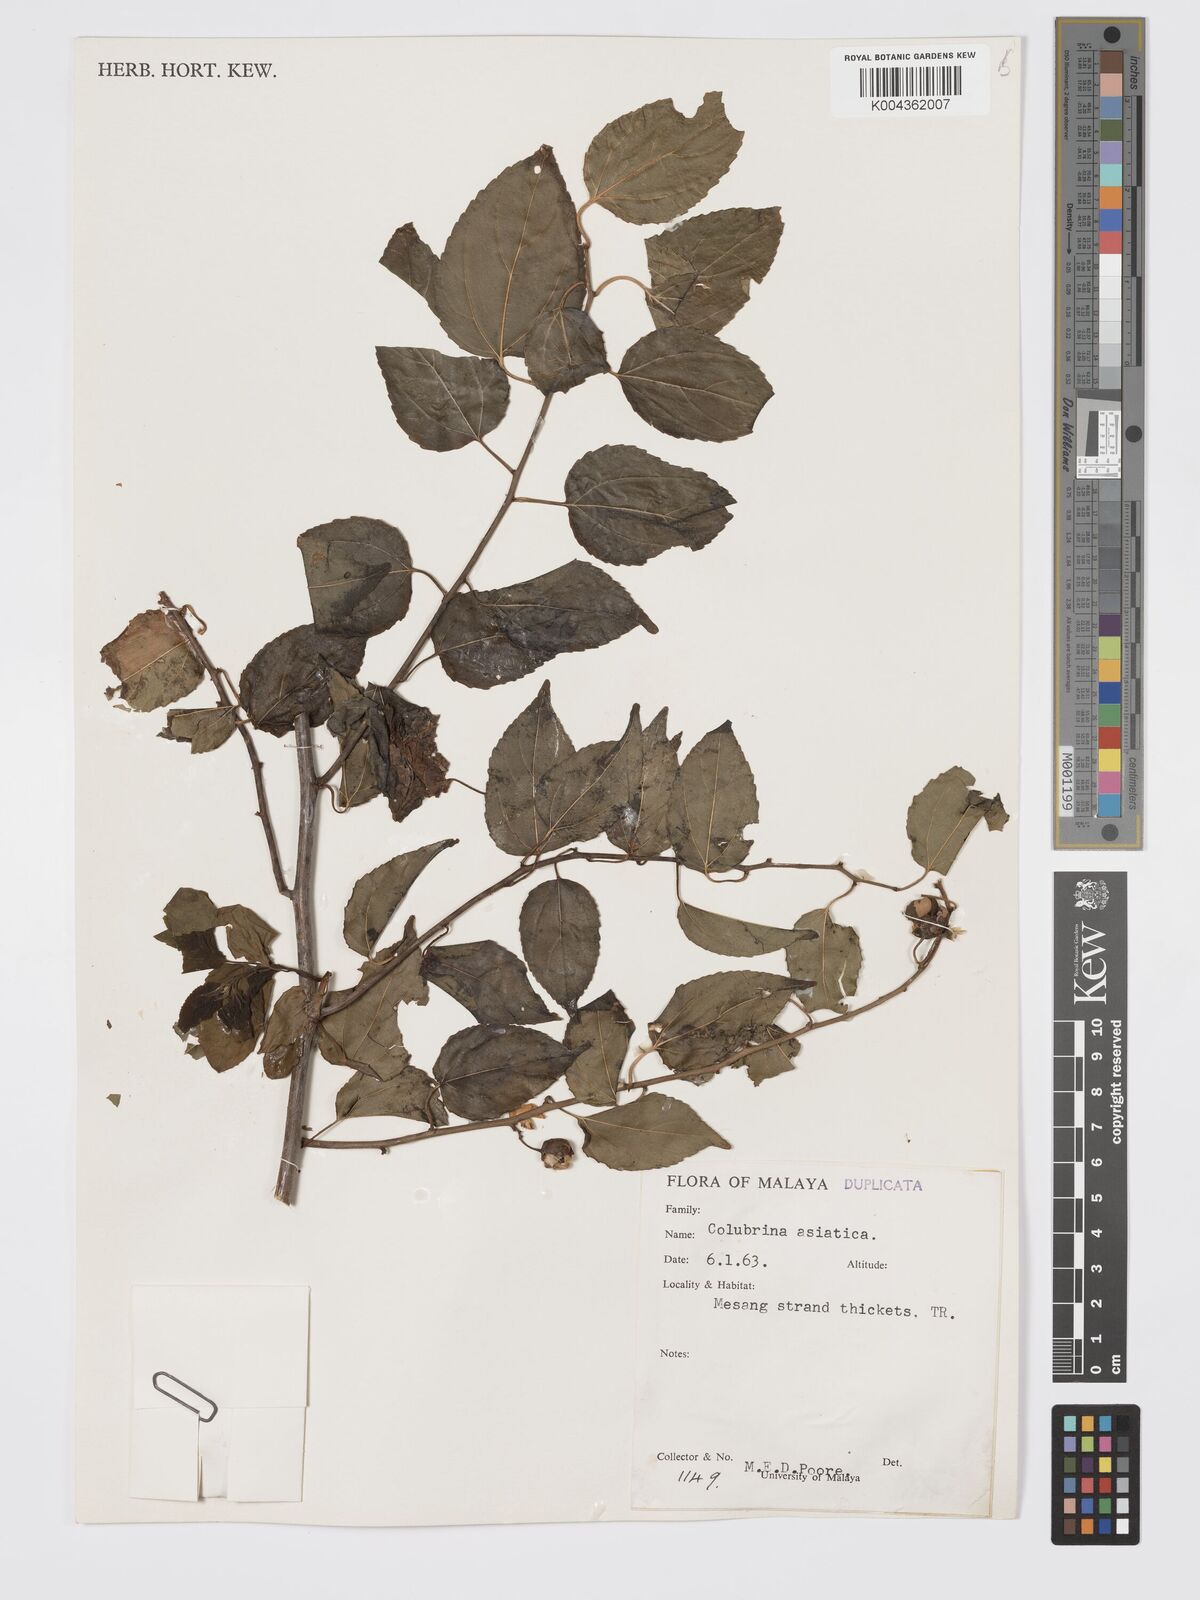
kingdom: Plantae
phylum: Tracheophyta
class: Magnoliopsida
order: Rosales
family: Rhamnaceae
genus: Colubrina
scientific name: Colubrina asiatica
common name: Asian nakedwood
